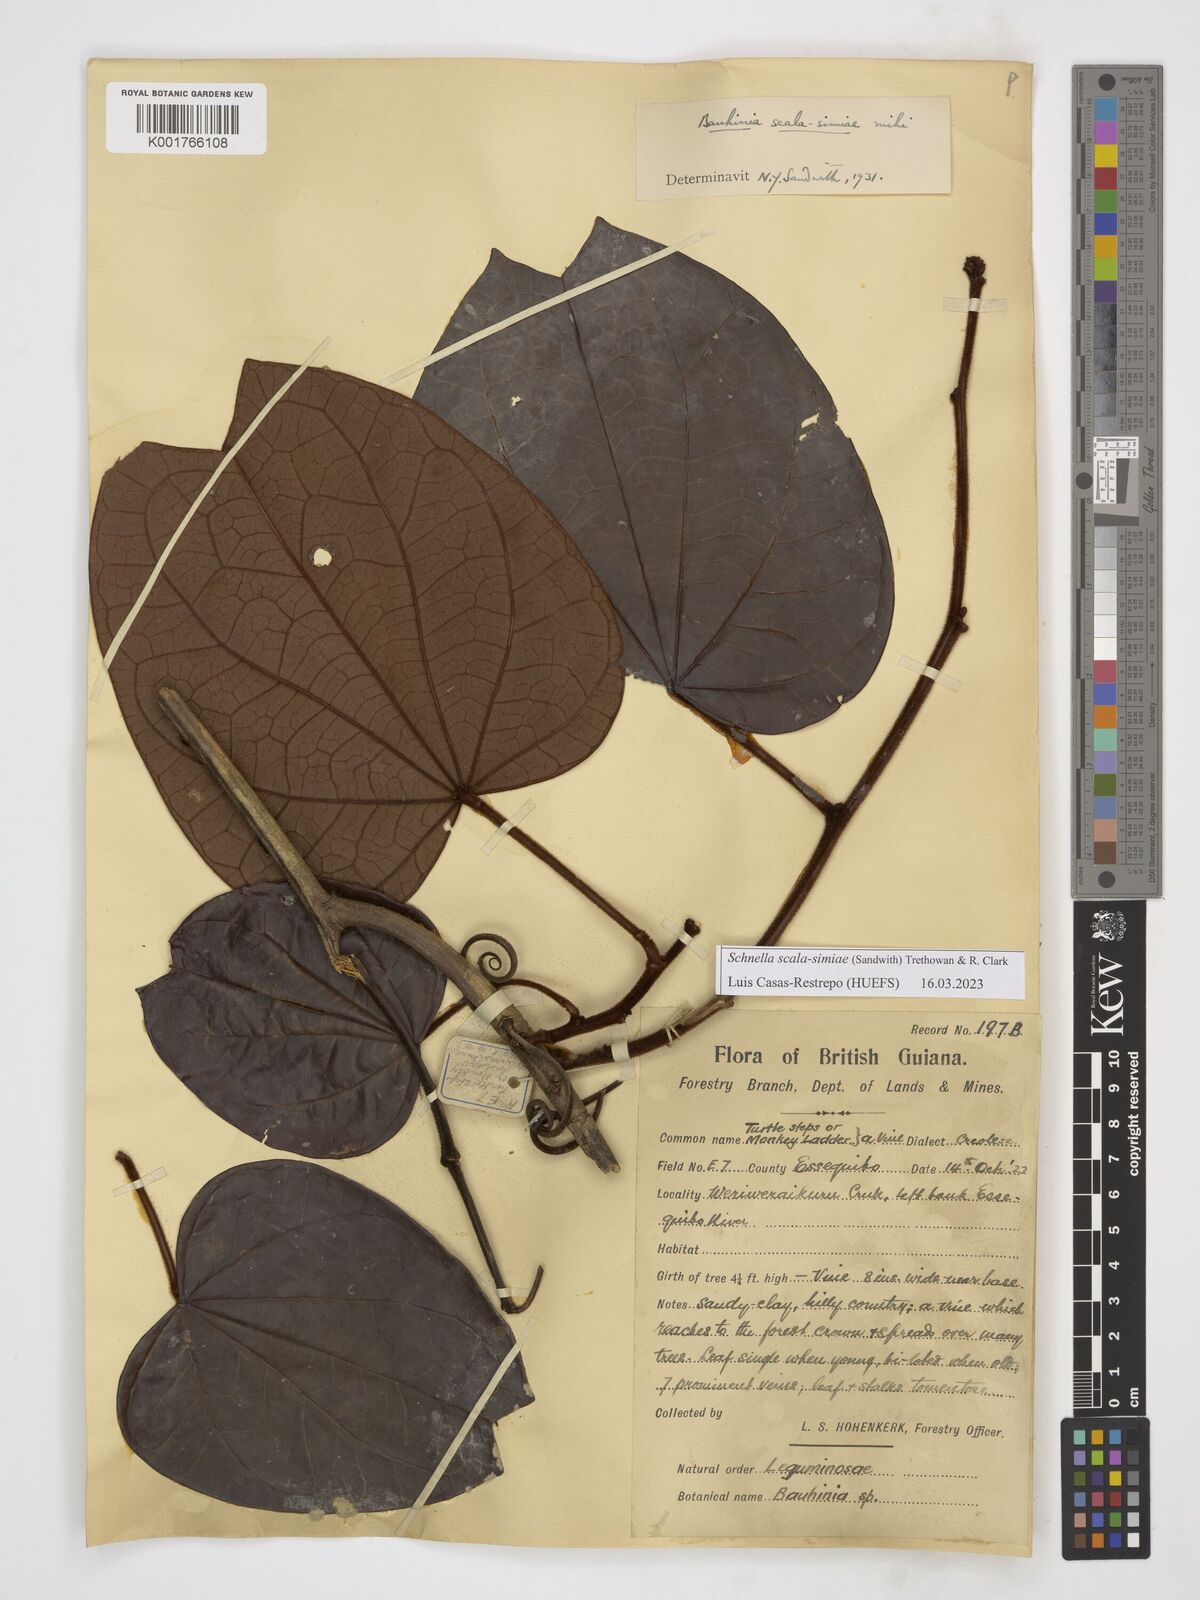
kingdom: Plantae
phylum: Tracheophyta
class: Magnoliopsida
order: Fabales
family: Fabaceae
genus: Schnella
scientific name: Schnella scala-simiae
